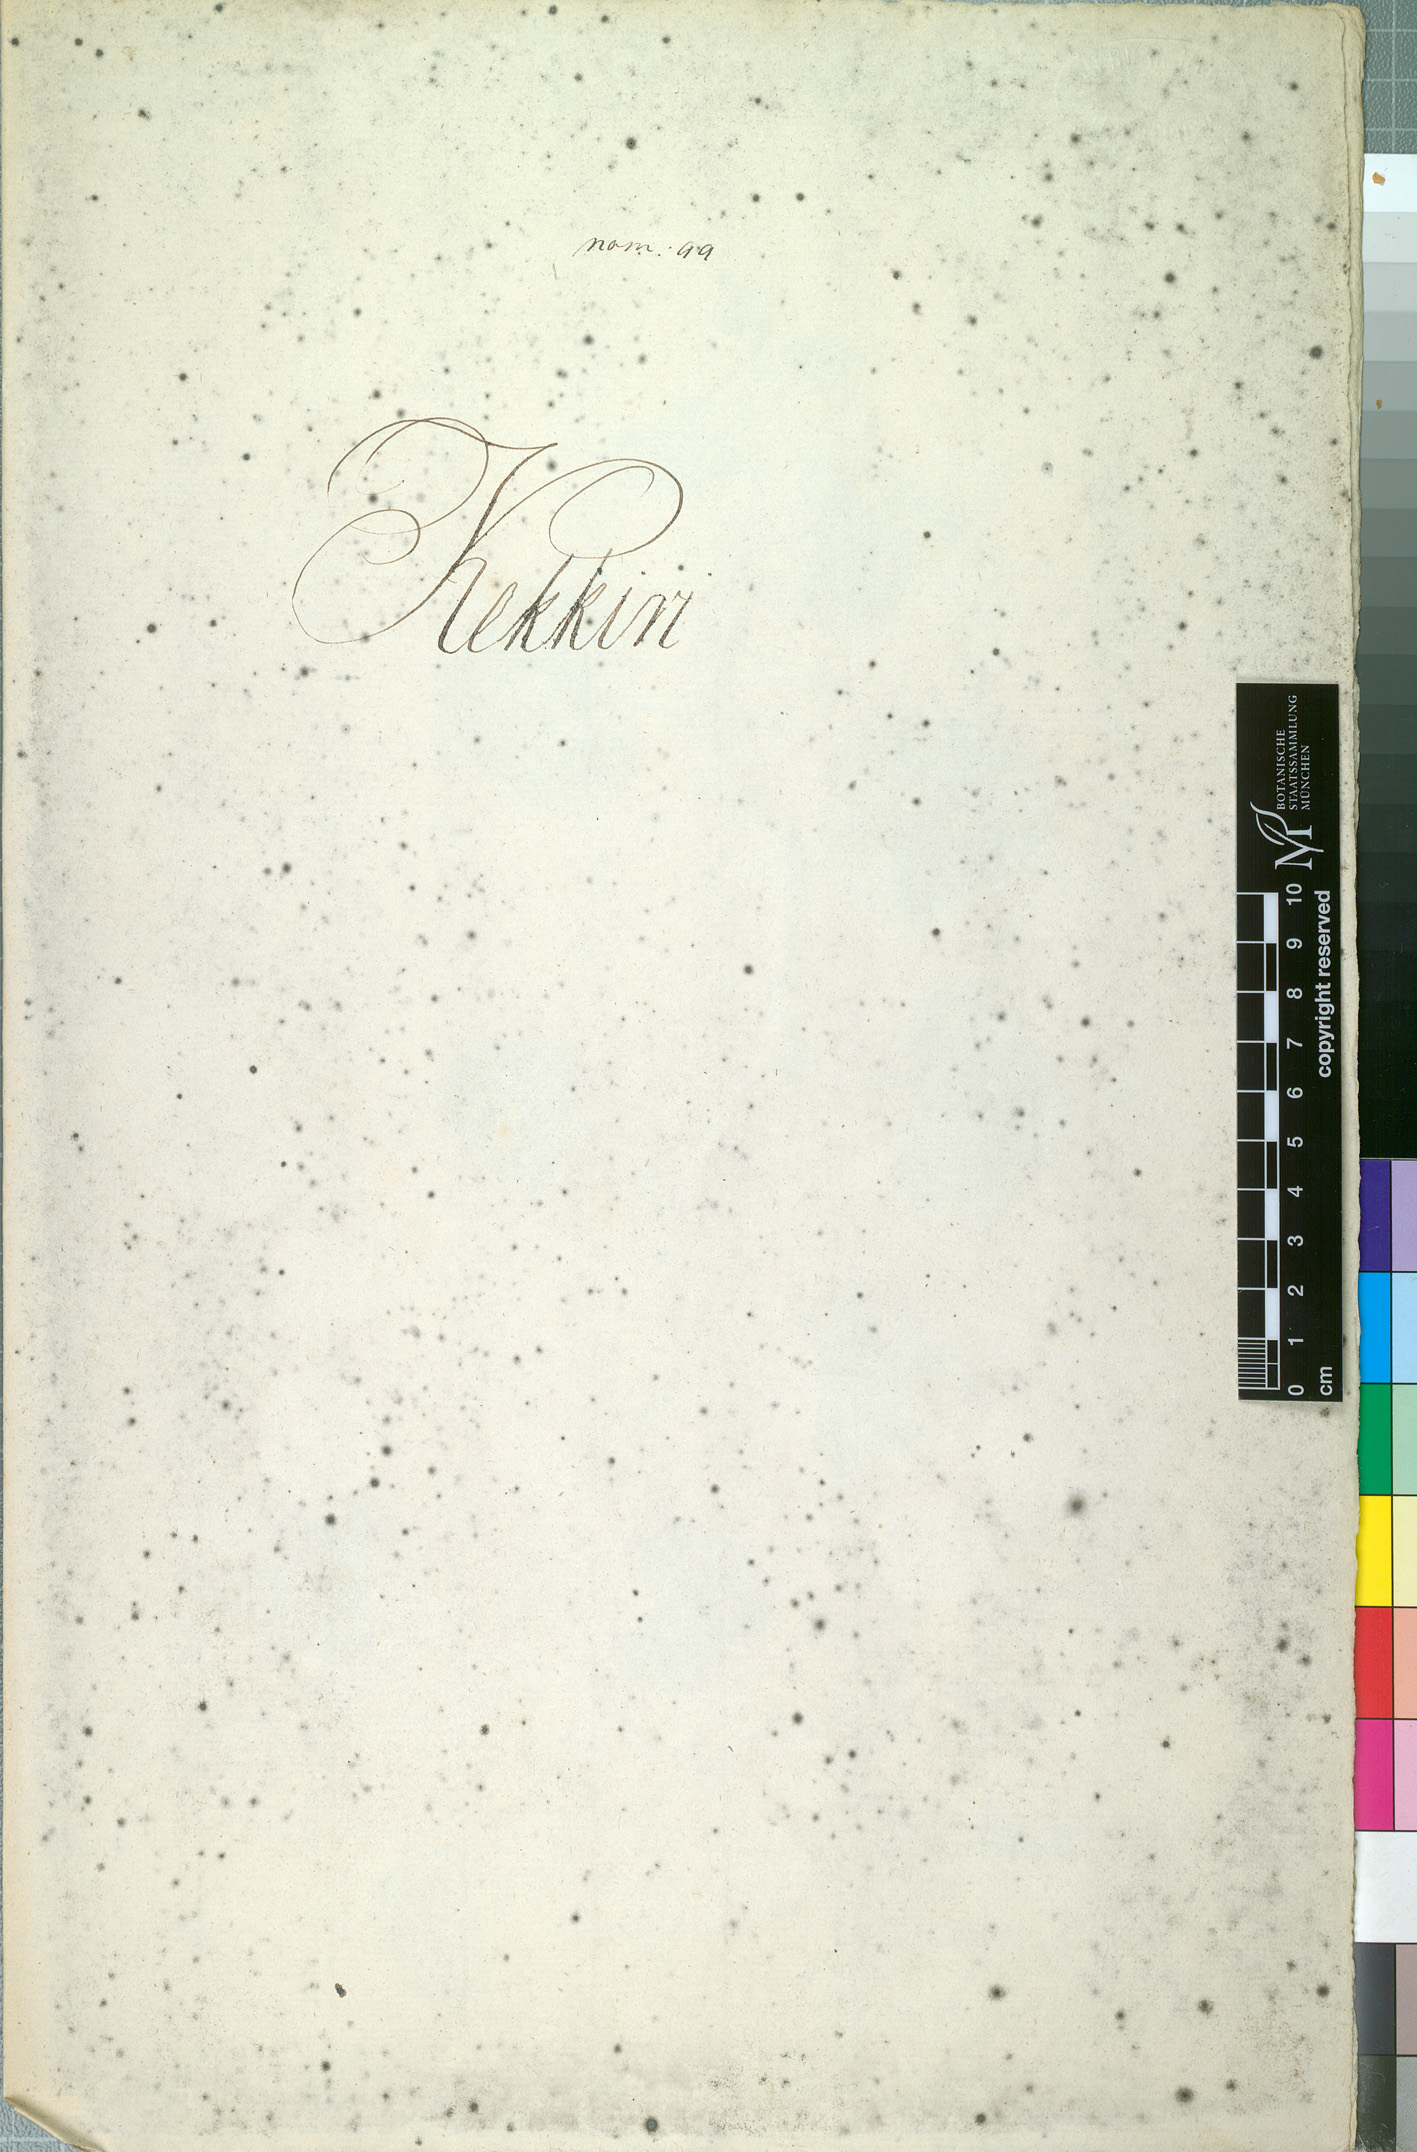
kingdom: Plantae
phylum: Tracheophyta
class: Magnoliopsida
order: Cucurbitales
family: Cucurbitaceae
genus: Cucumis
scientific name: Cucumis melo
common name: Melon
